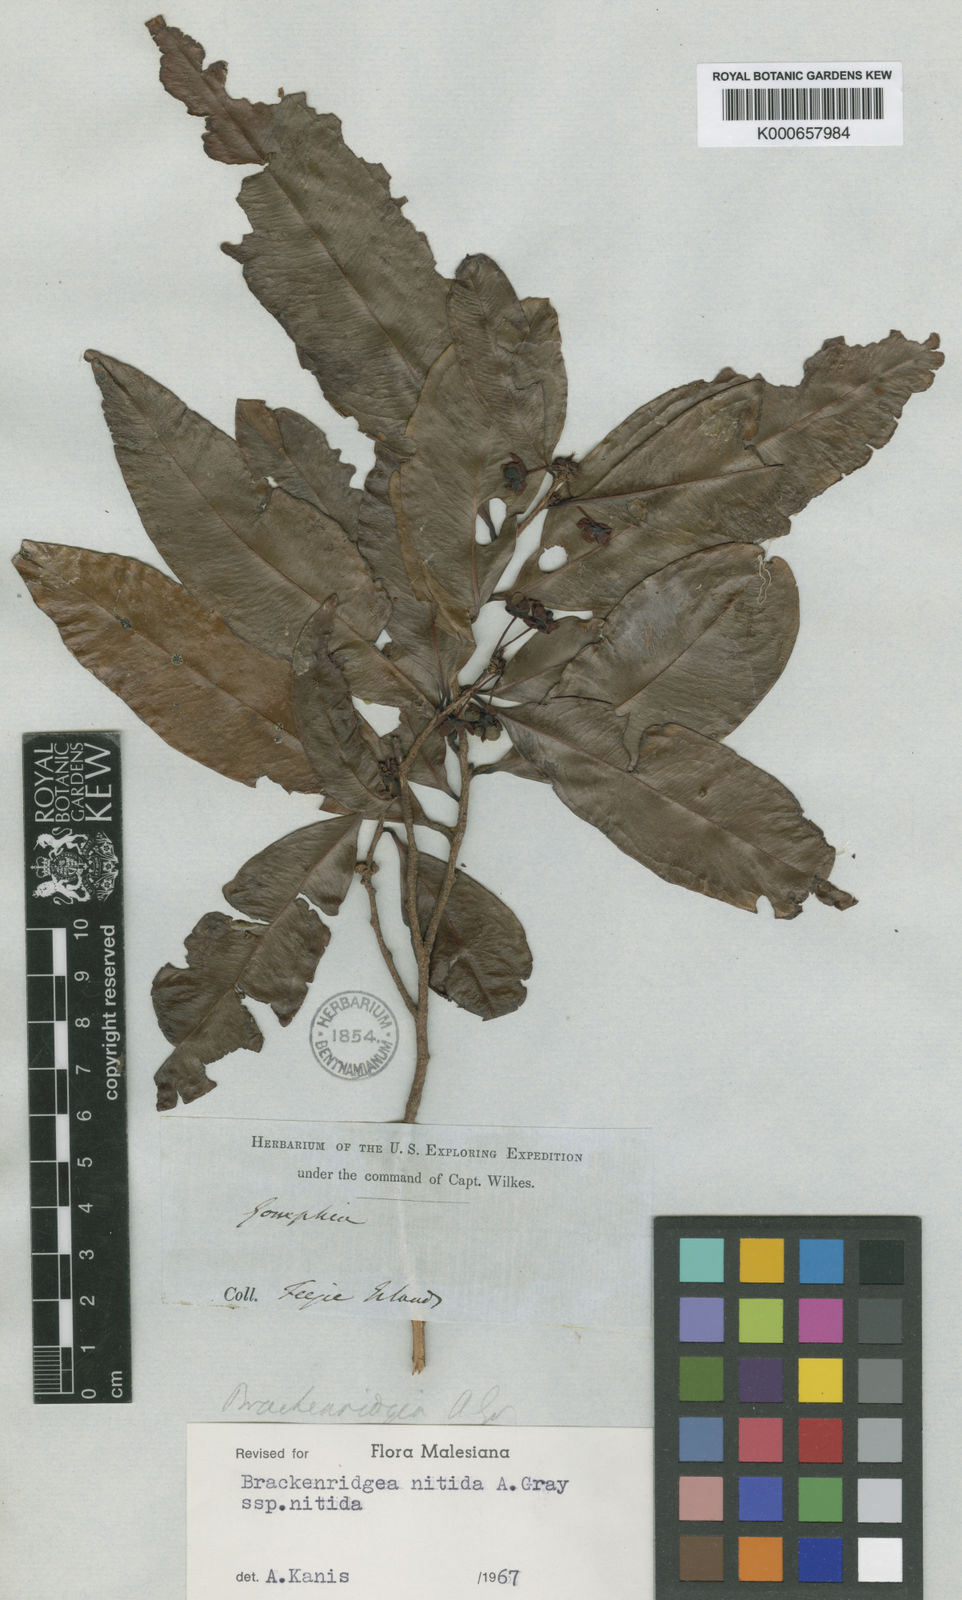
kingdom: Plantae
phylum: Tracheophyta
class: Magnoliopsida
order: Malpighiales
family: Ochnaceae
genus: Brackenridgea
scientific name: Brackenridgea nitida
